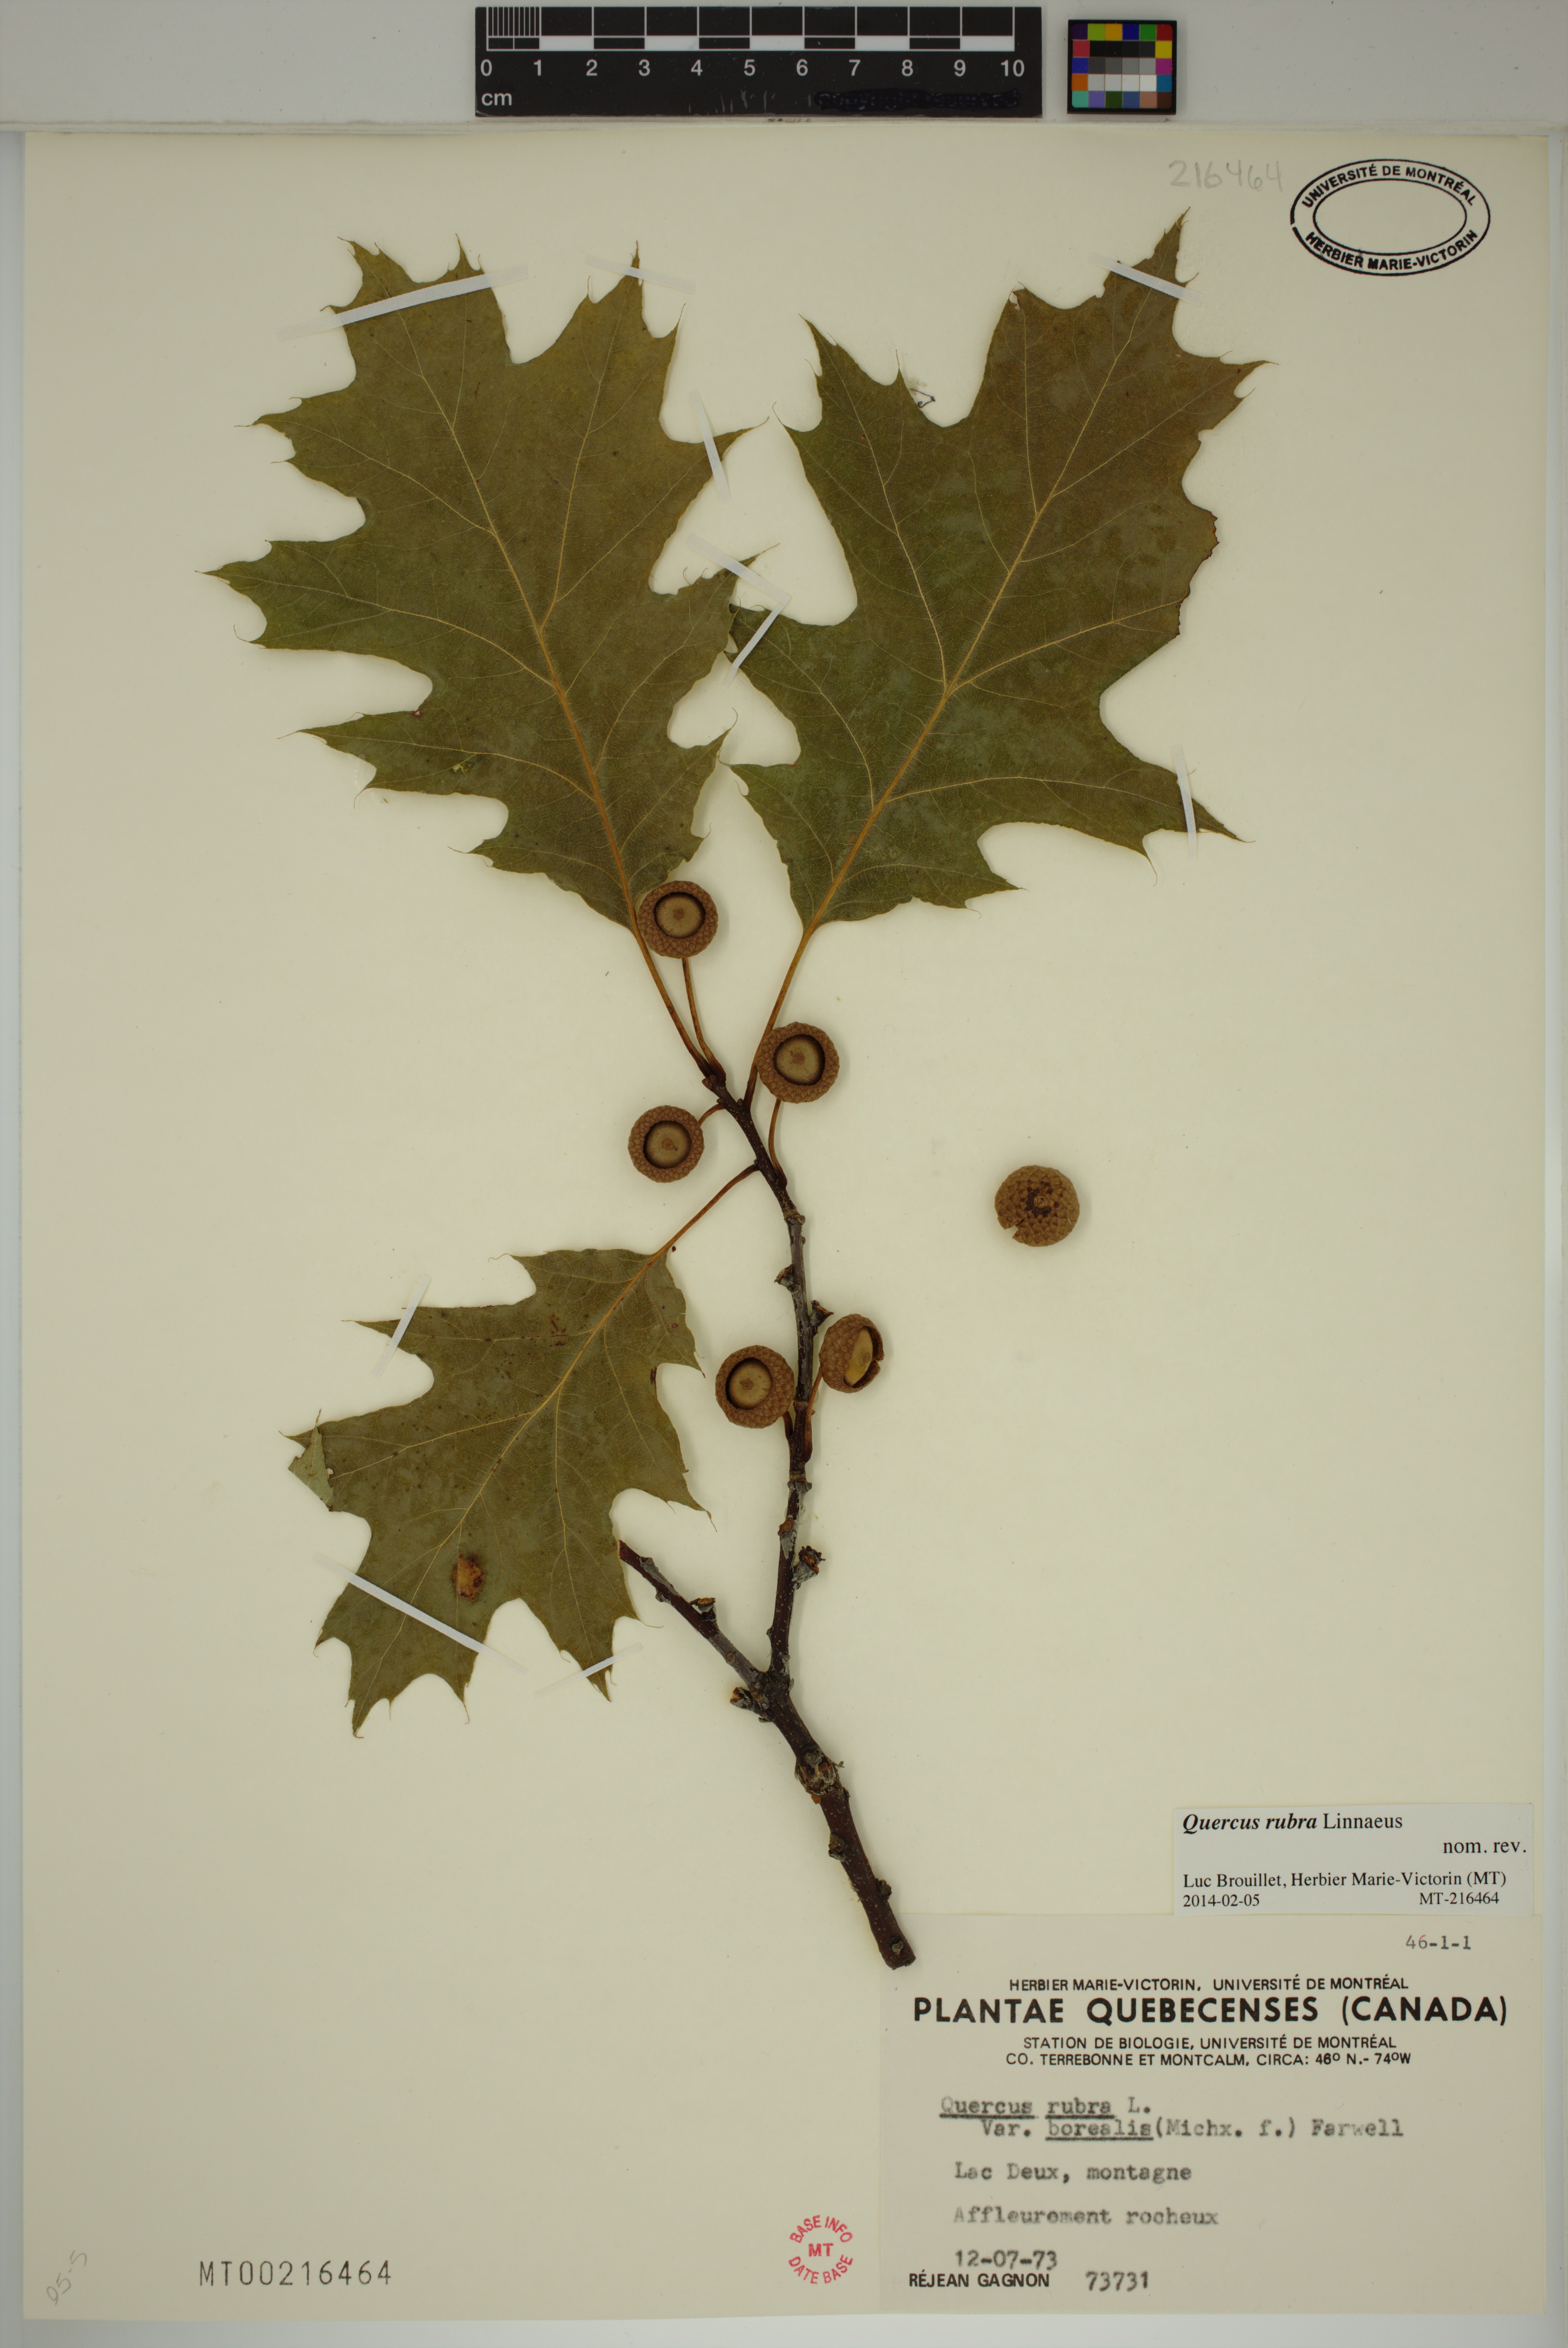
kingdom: Plantae
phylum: Tracheophyta
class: Magnoliopsida
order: Fagales
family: Fagaceae
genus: Quercus
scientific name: Quercus rubra
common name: Red oak
